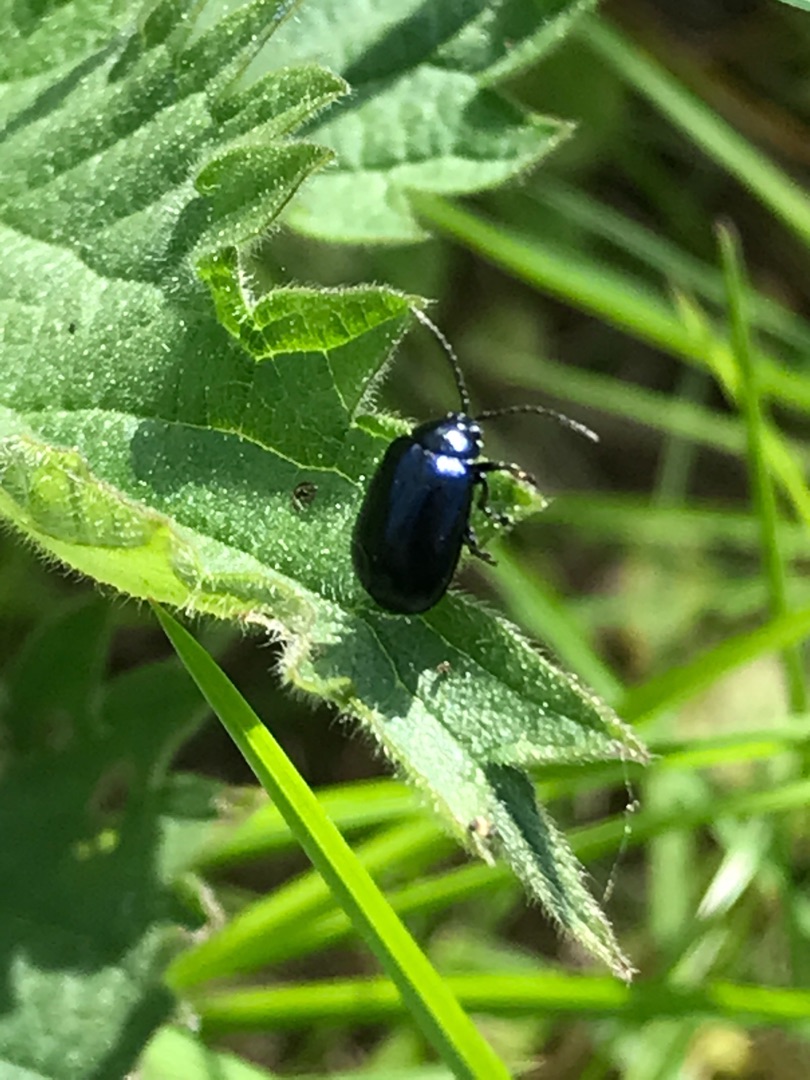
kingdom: Animalia
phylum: Arthropoda
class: Insecta
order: Coleoptera
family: Chrysomelidae
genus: Agelastica
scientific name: Agelastica alni
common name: Ellebladbille
